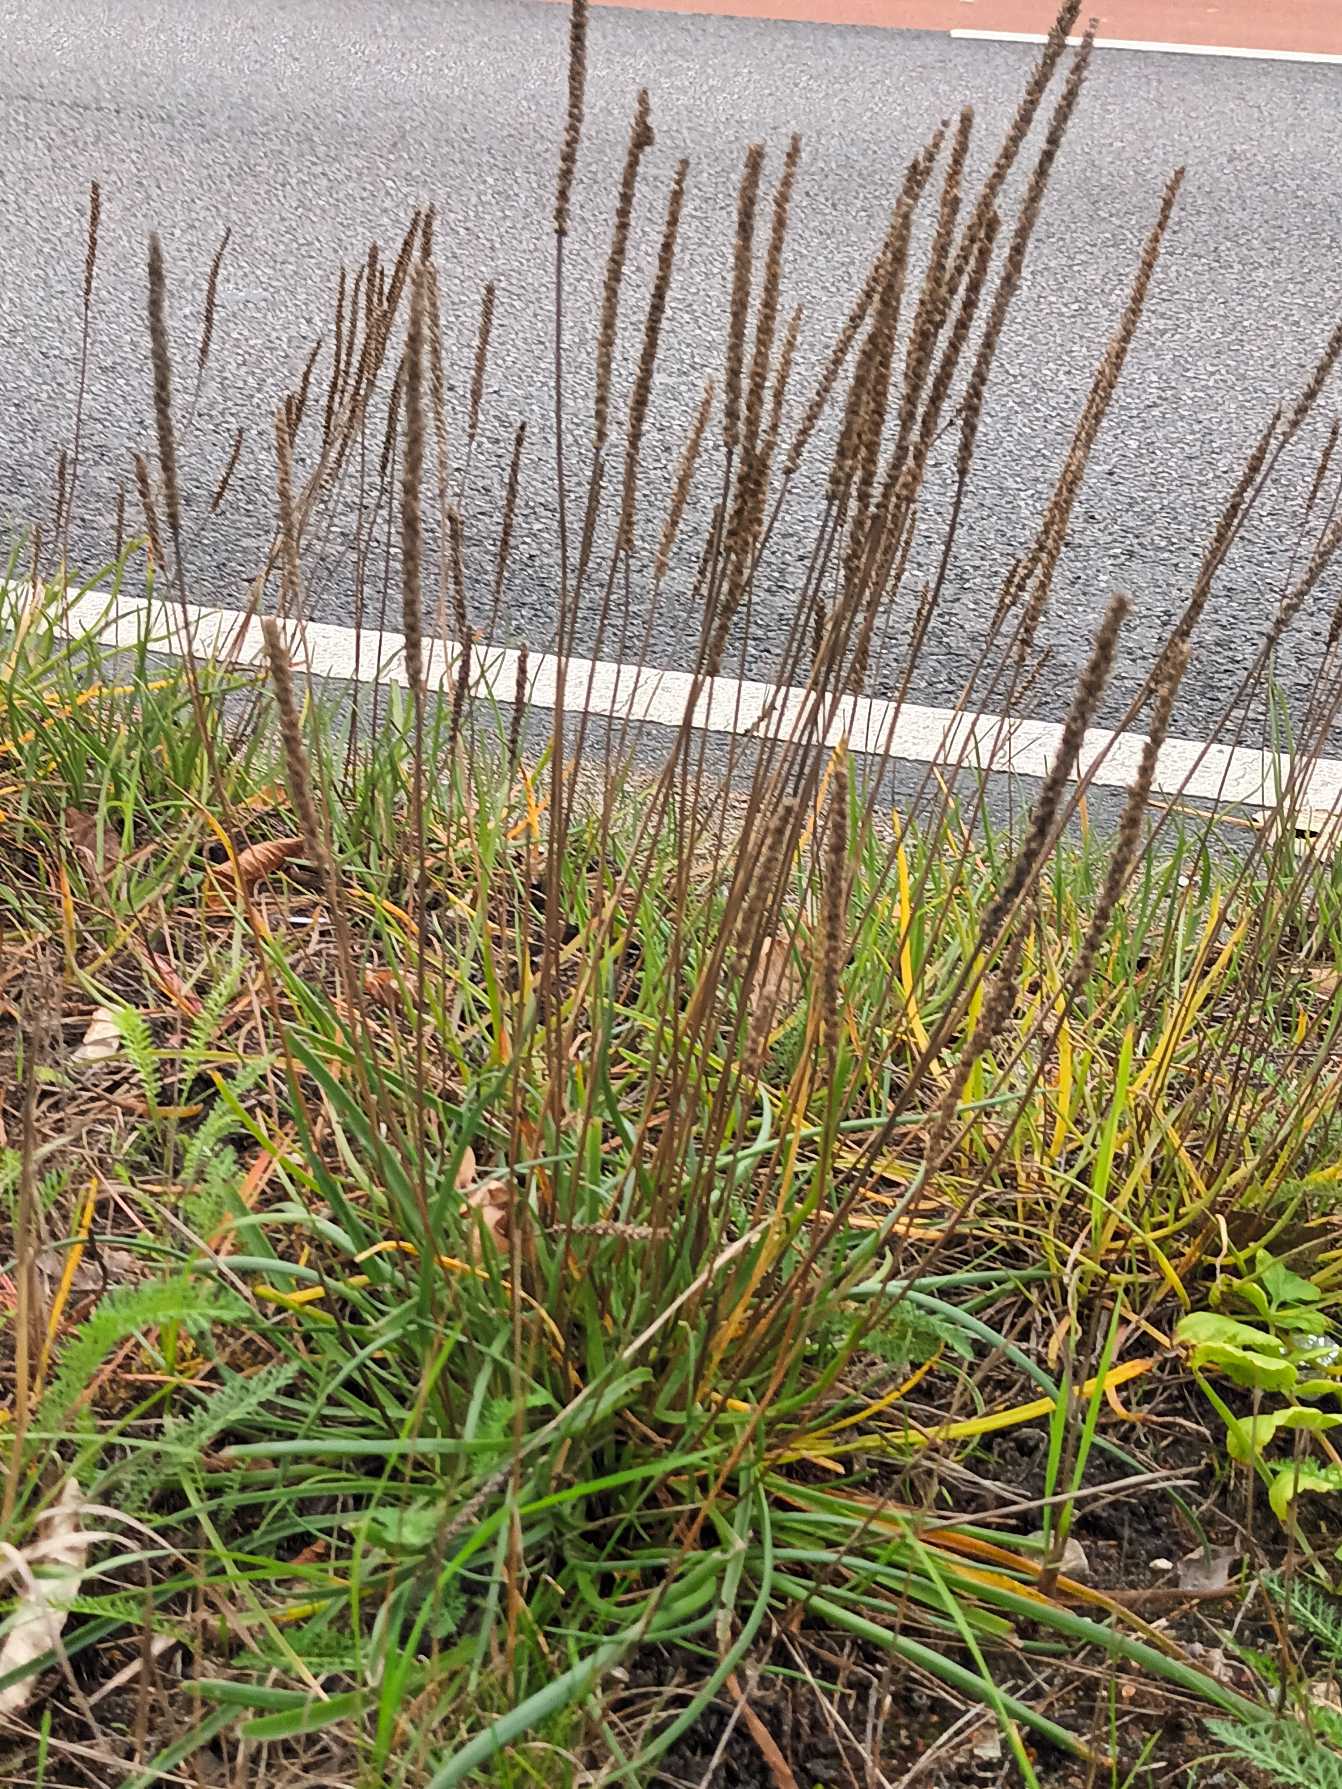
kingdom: Plantae
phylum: Tracheophyta
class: Magnoliopsida
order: Lamiales
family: Plantaginaceae
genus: Plantago
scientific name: Plantago maritima
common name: Strand-vejbred
